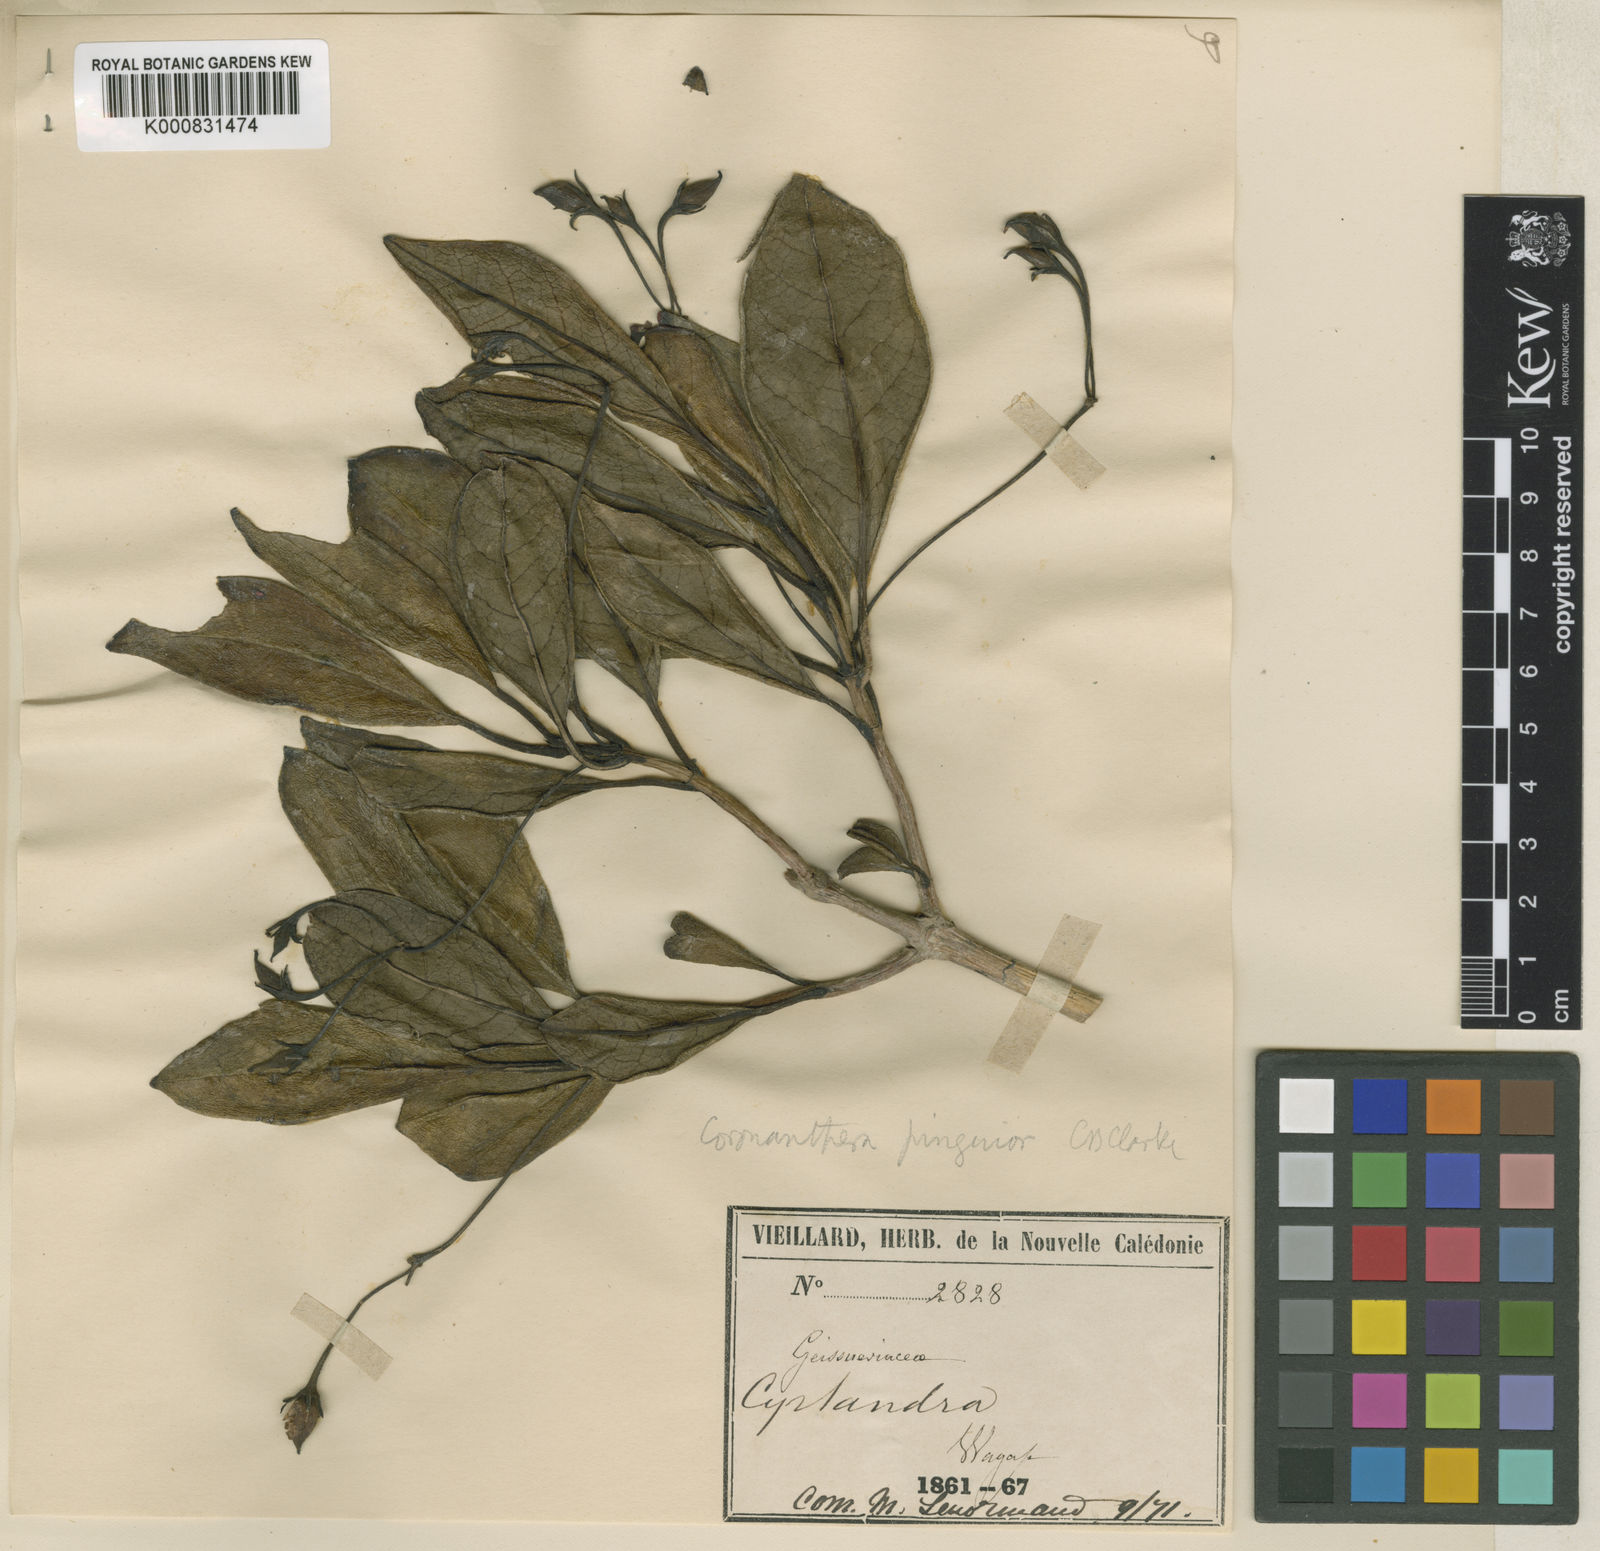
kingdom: Plantae
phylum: Tracheophyta
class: Magnoliopsida
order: Lamiales
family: Gesneriaceae
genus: Coronanthera
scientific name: Coronanthera pinguior
